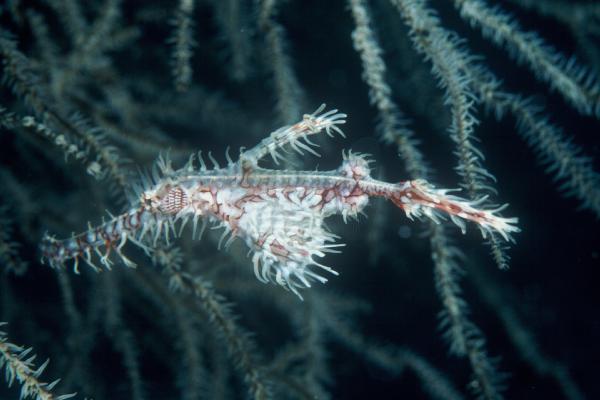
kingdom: Animalia
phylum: Chordata
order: Syngnathiformes
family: Solenostomidae
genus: Solenostomus
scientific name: Solenostomus paradoxus
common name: Ghost pipefish
